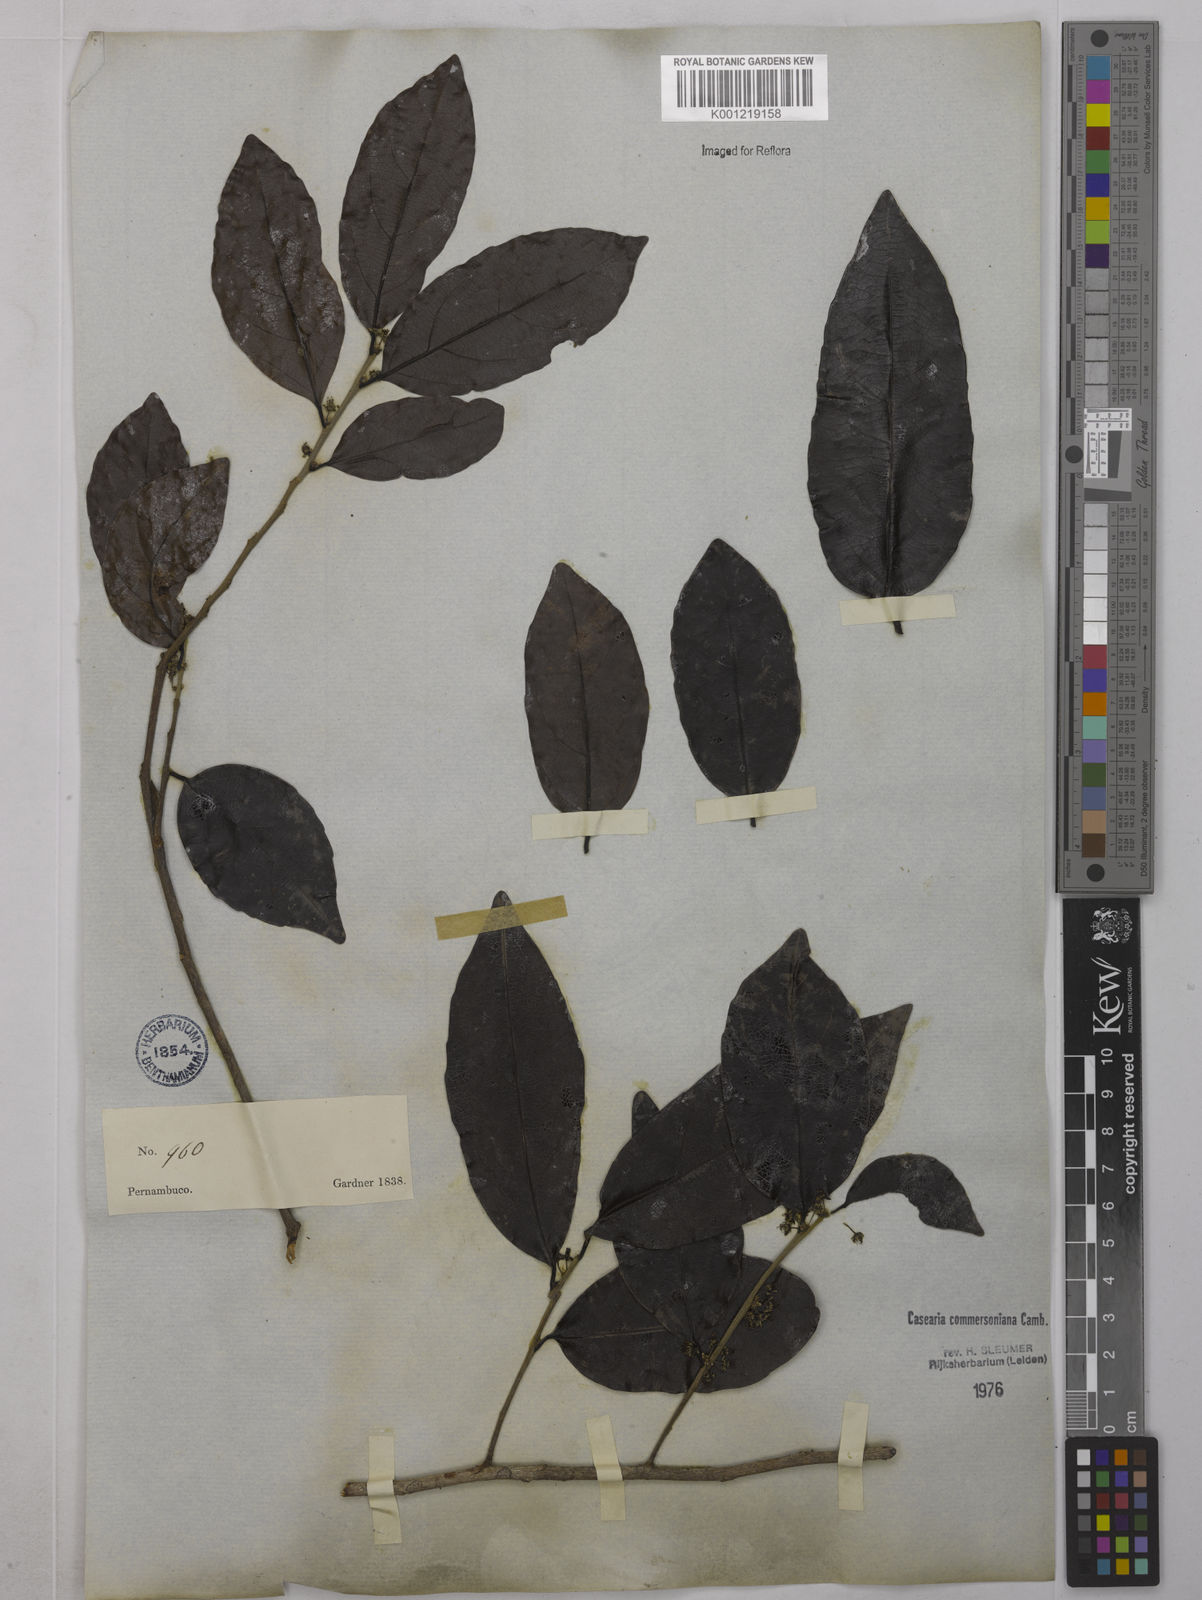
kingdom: Plantae
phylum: Tracheophyta
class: Magnoliopsida
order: Malpighiales
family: Salicaceae
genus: Piparea
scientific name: Piparea dentata
